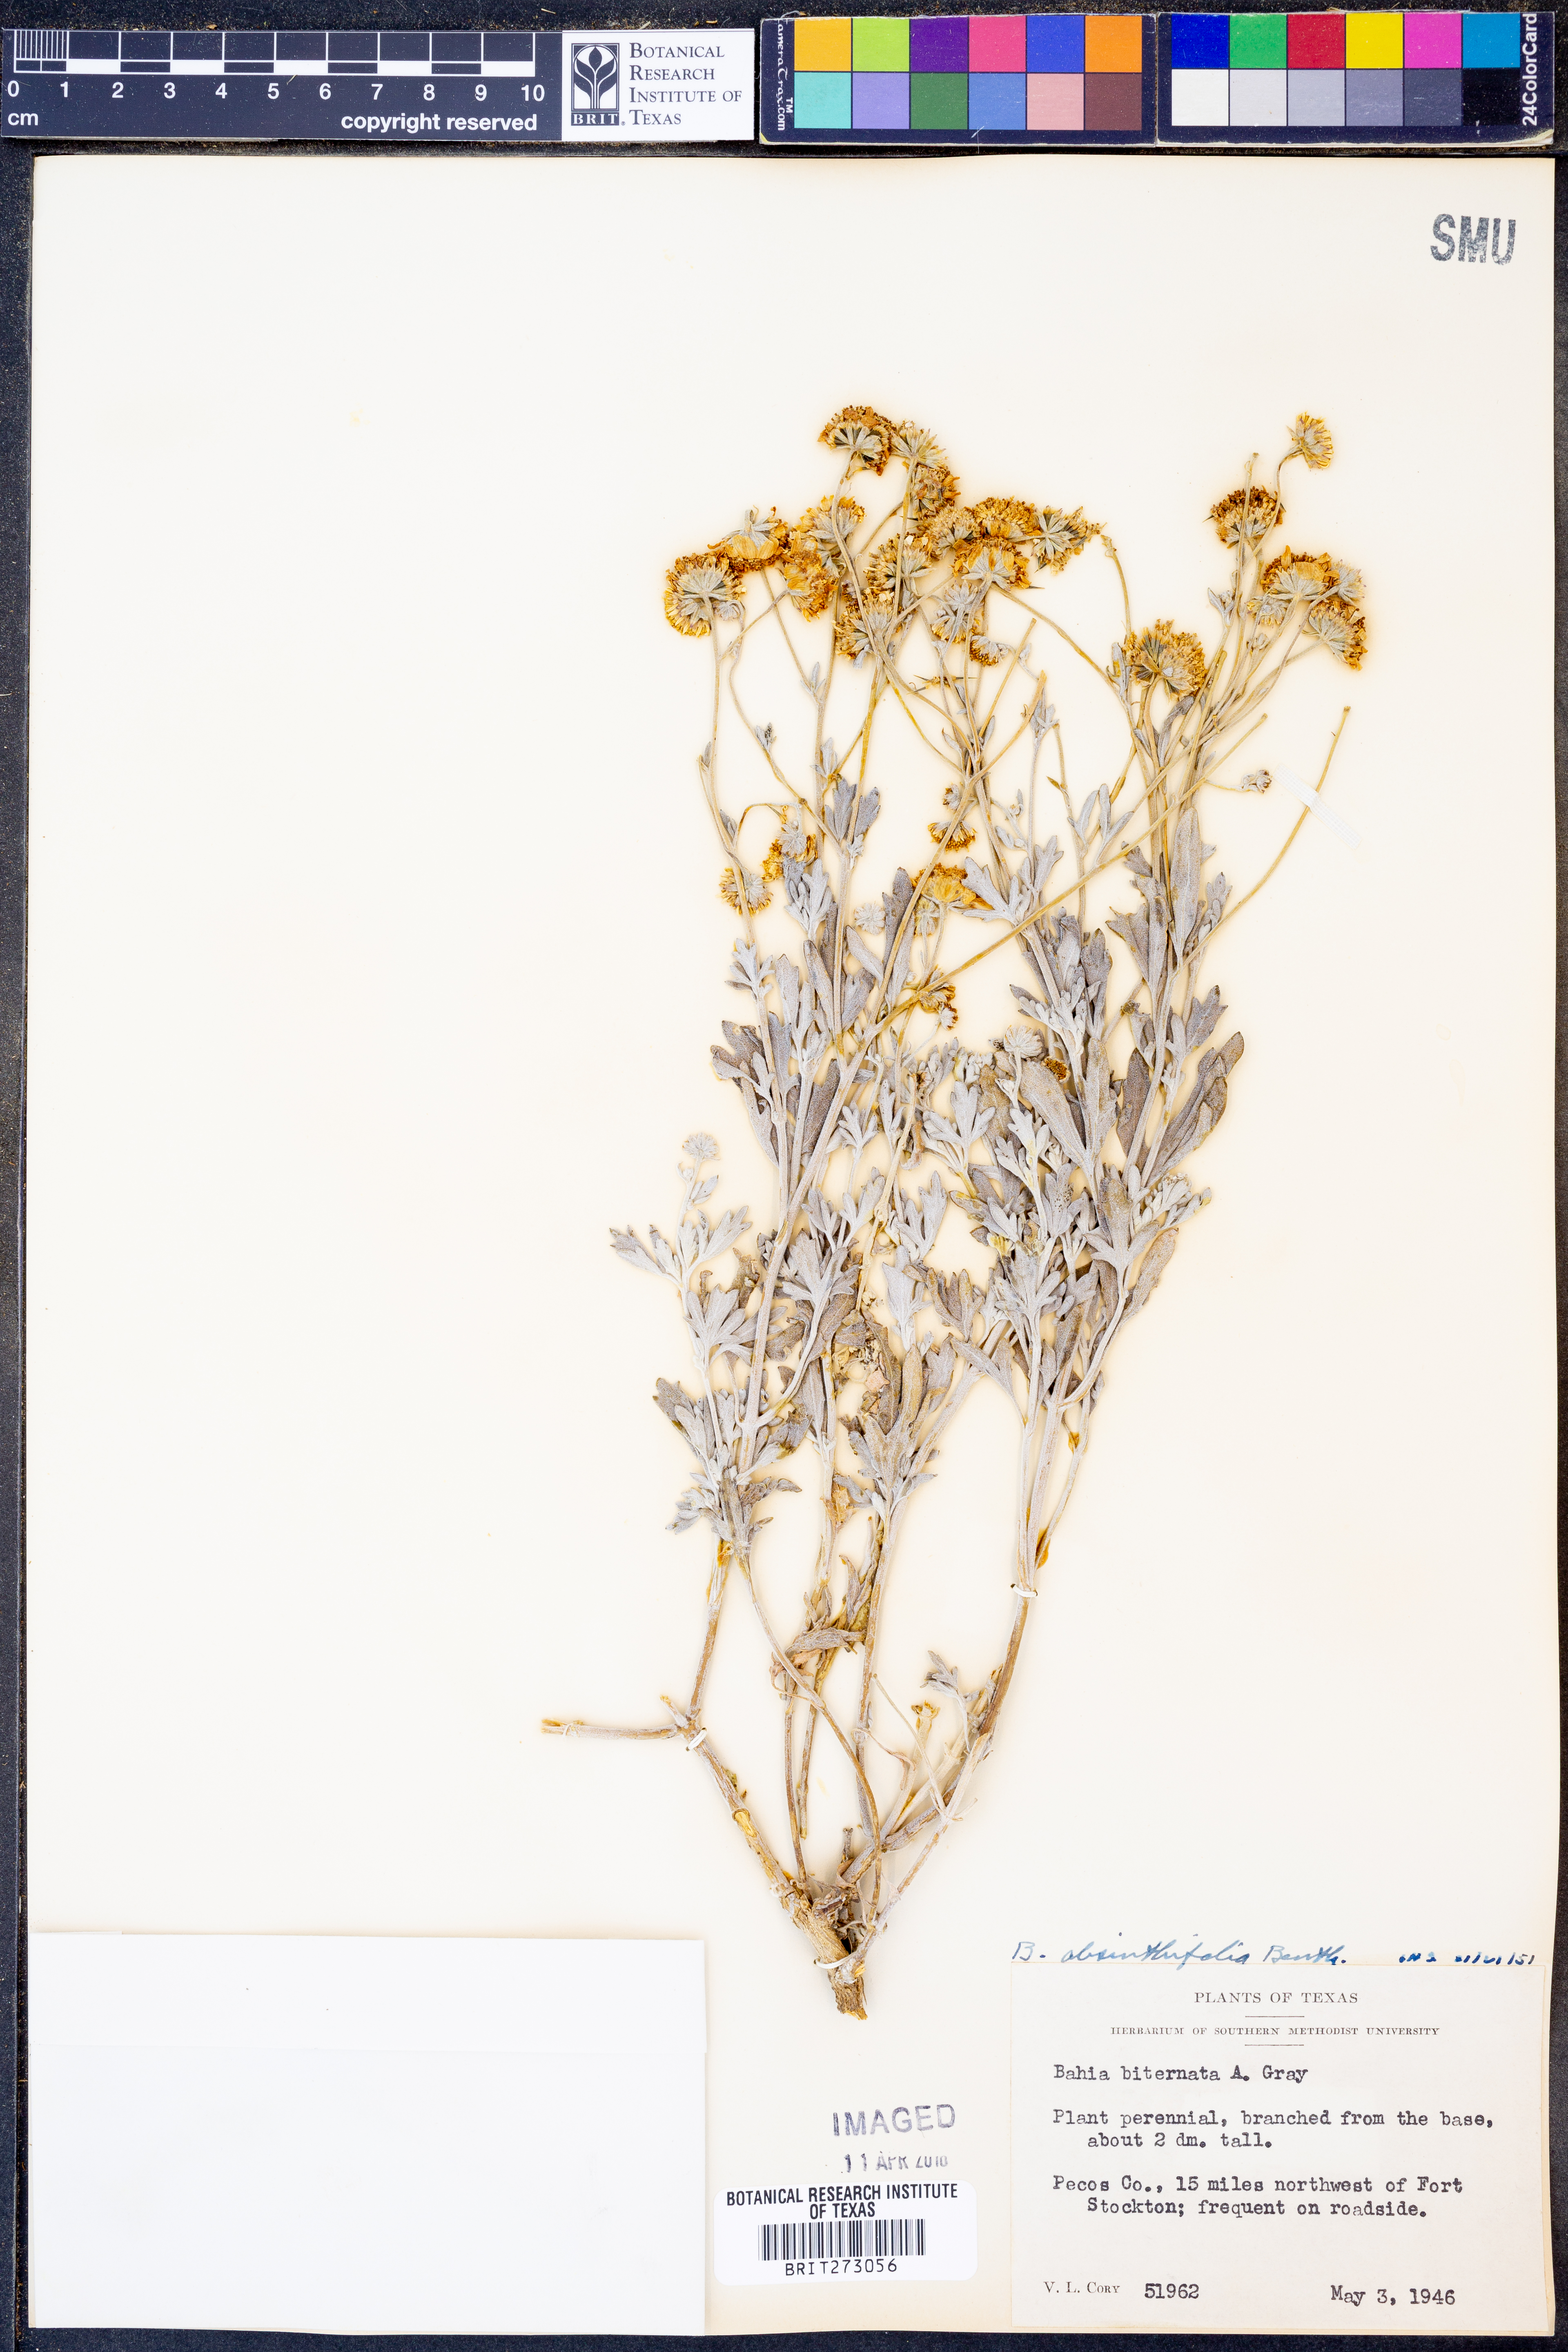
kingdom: Plantae
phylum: Tracheophyta
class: Magnoliopsida
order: Asterales
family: Asteraceae
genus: Picradeniopsis
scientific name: Picradeniopsis absinthifolia
